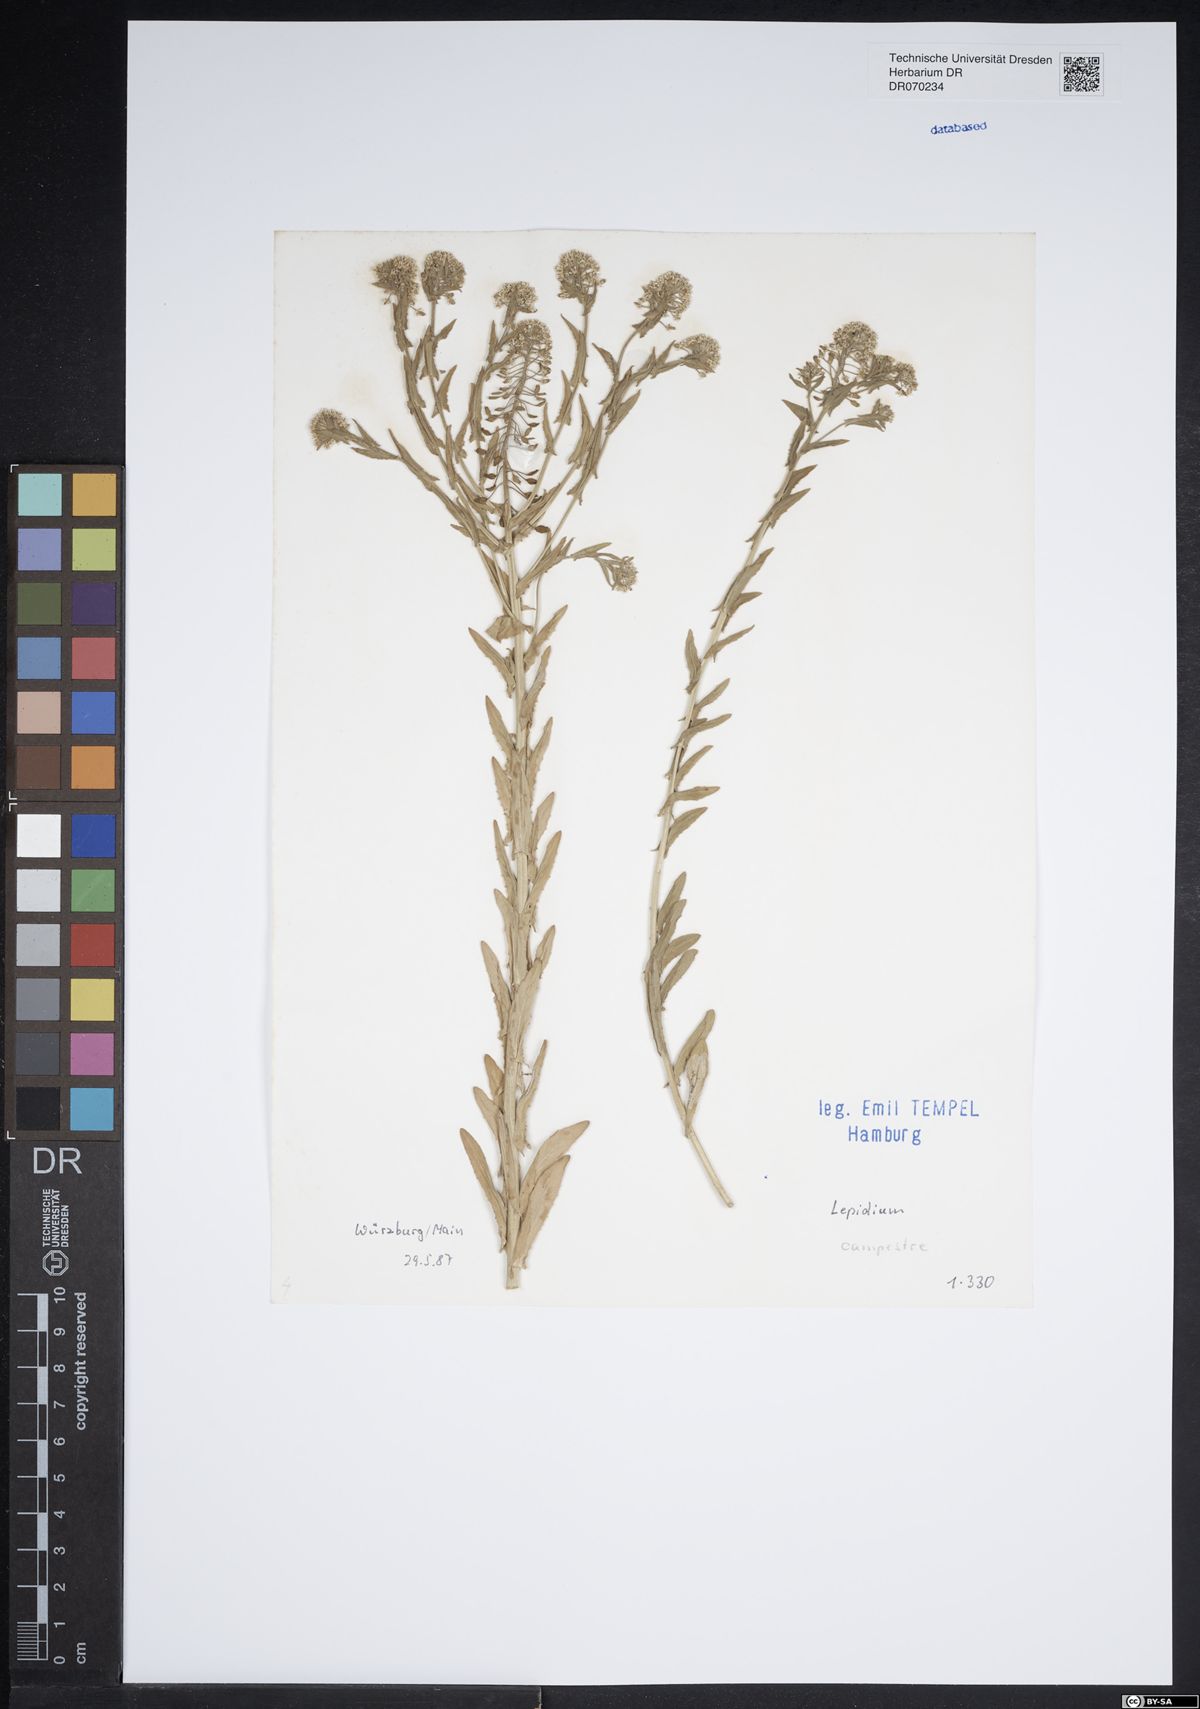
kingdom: Plantae
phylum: Tracheophyta
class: Magnoliopsida
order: Brassicales
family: Brassicaceae
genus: Lepidium
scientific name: Lepidium campestre
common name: Field pepperwort
